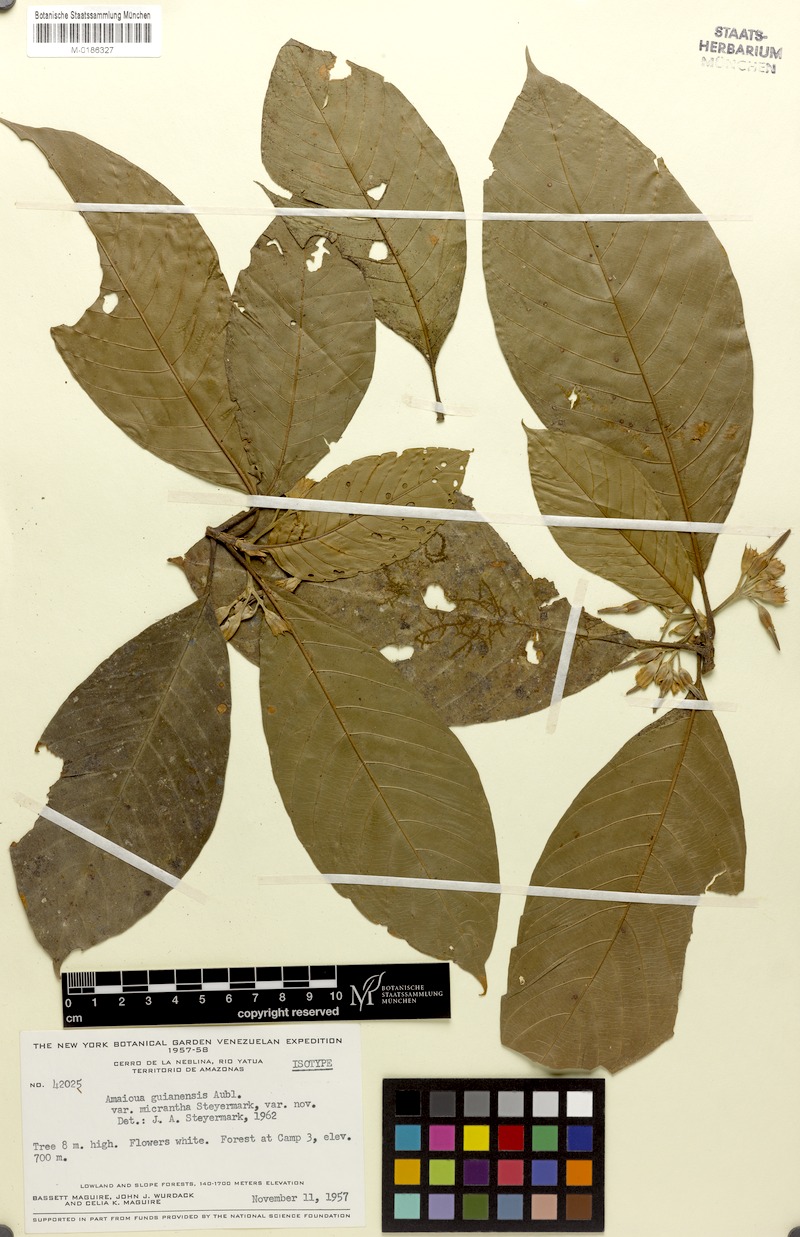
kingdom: Plantae
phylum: Tracheophyta
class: Magnoliopsida
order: Gentianales
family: Rubiaceae
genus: Amaioua
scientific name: Amaioua guianensis
